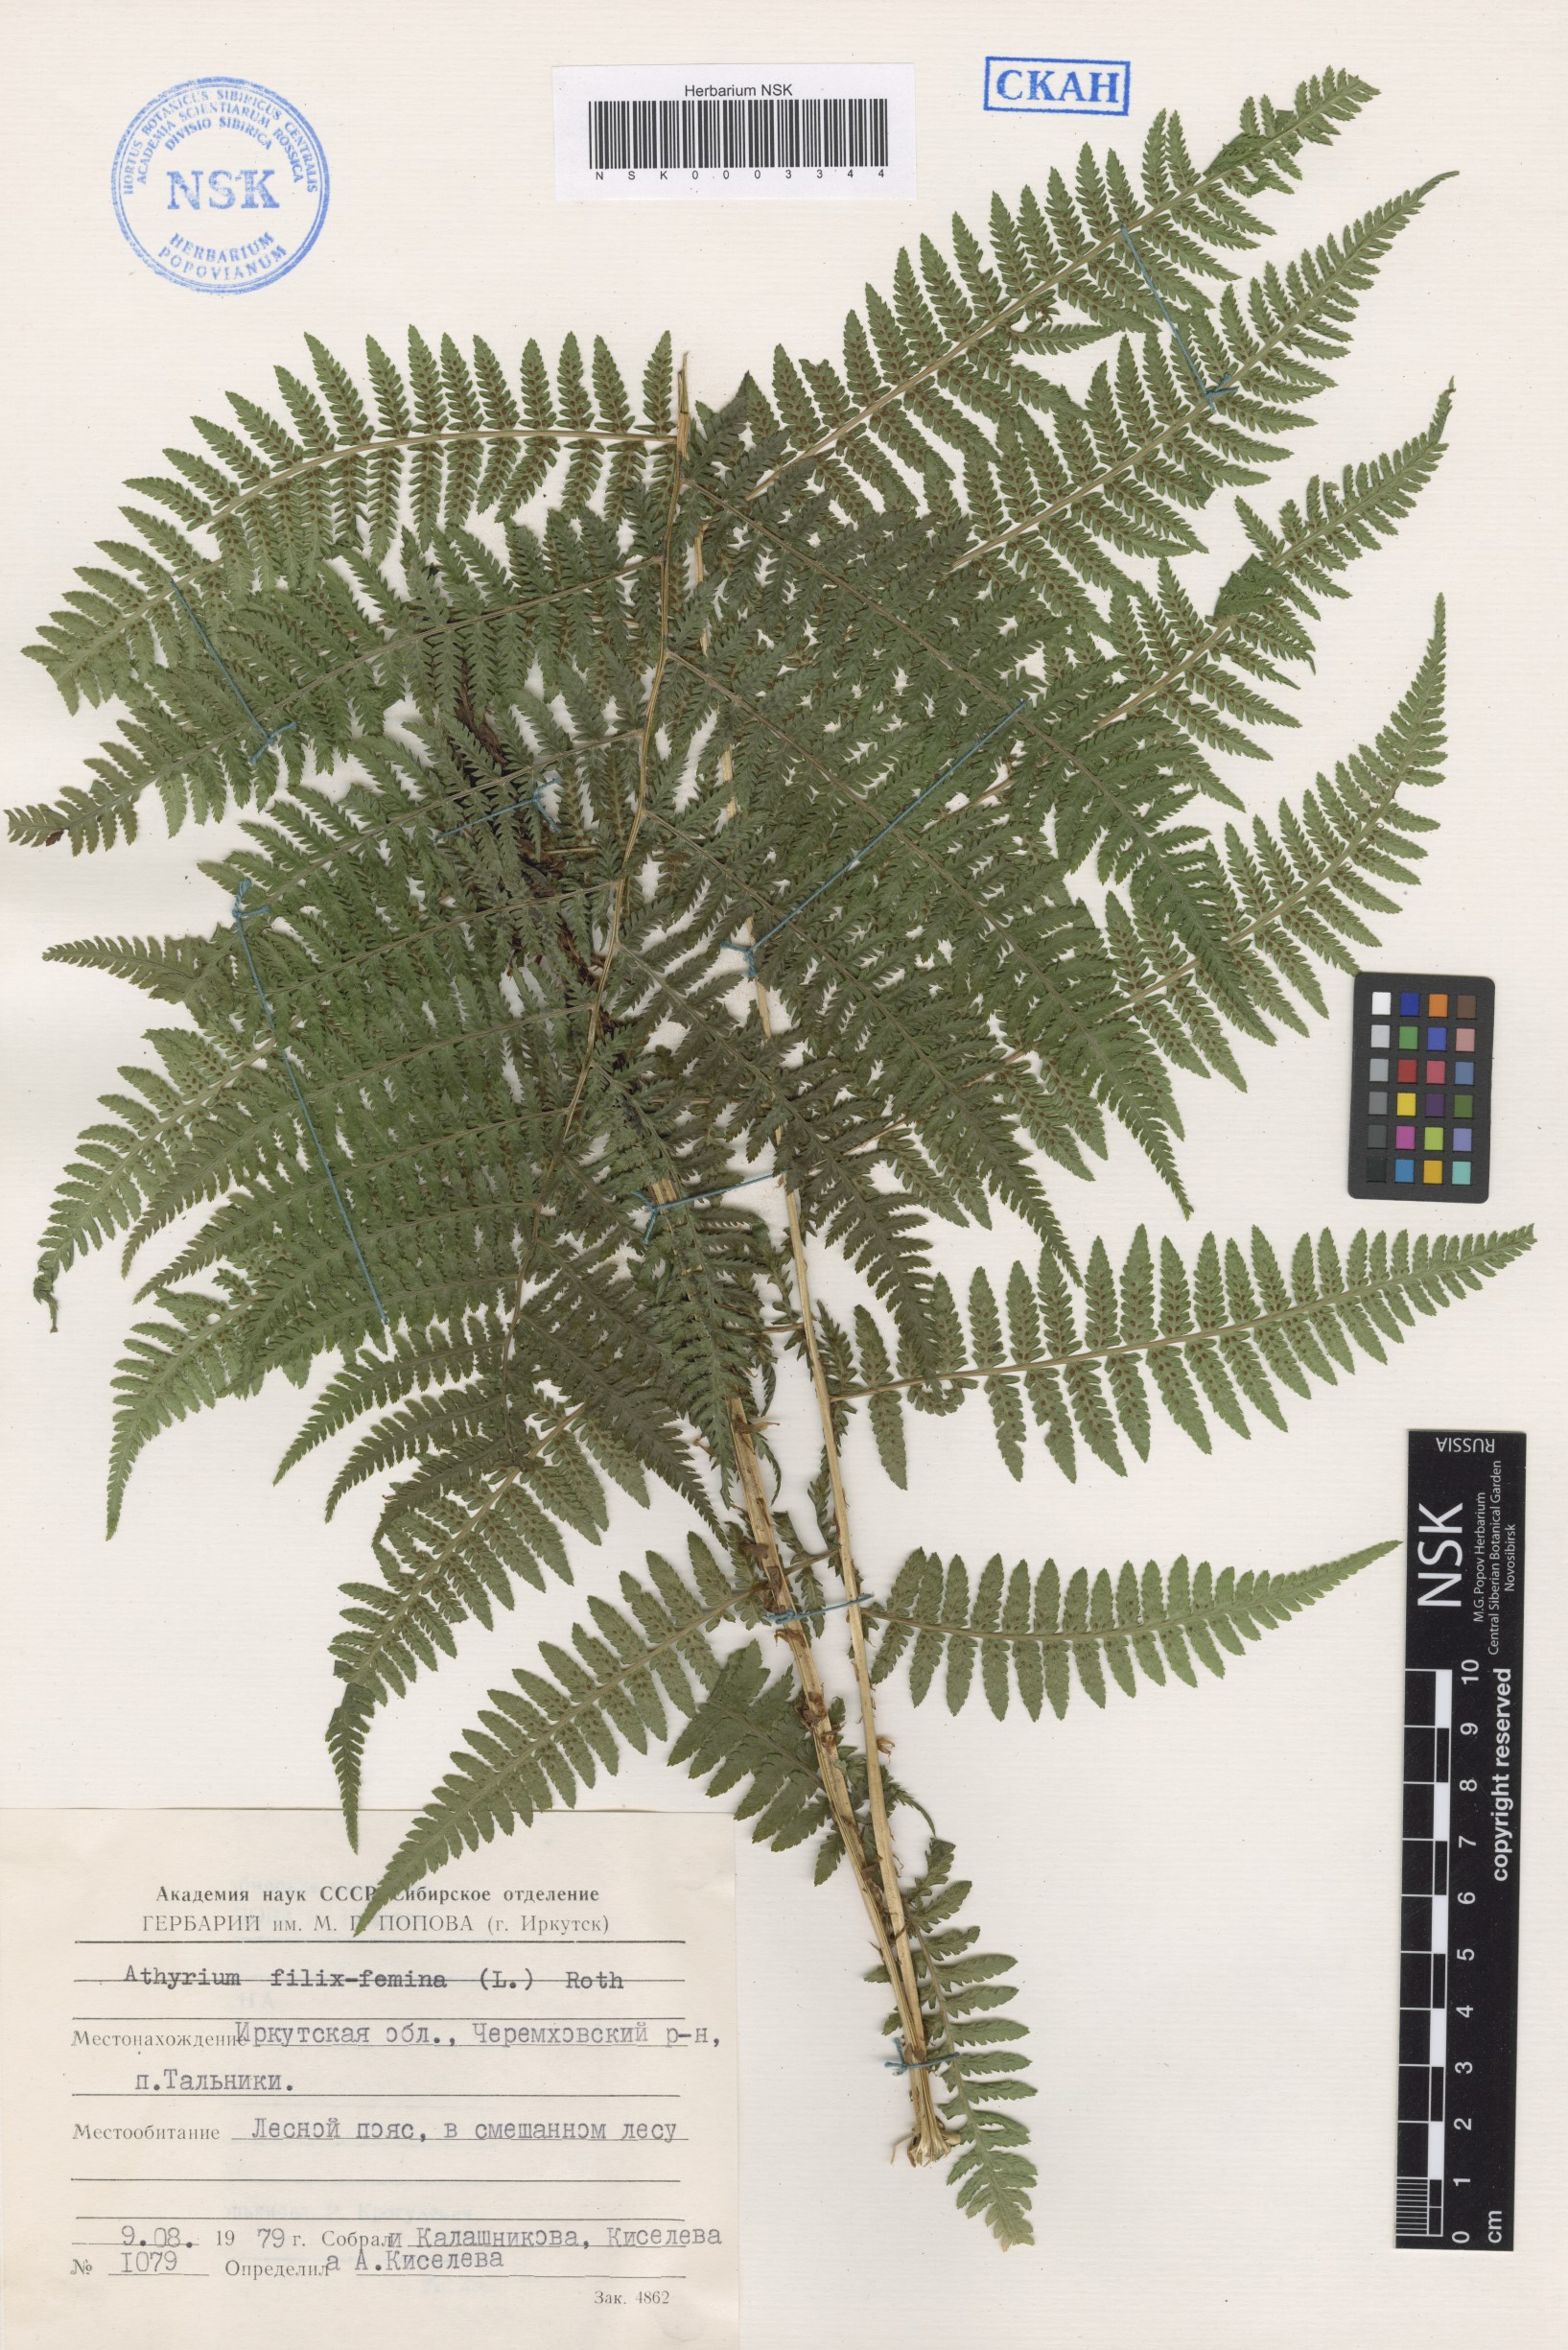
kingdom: Plantae
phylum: Tracheophyta
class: Polypodiopsida
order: Polypodiales
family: Athyriaceae
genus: Athyrium
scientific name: Athyrium filix-femina
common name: Lady fern
